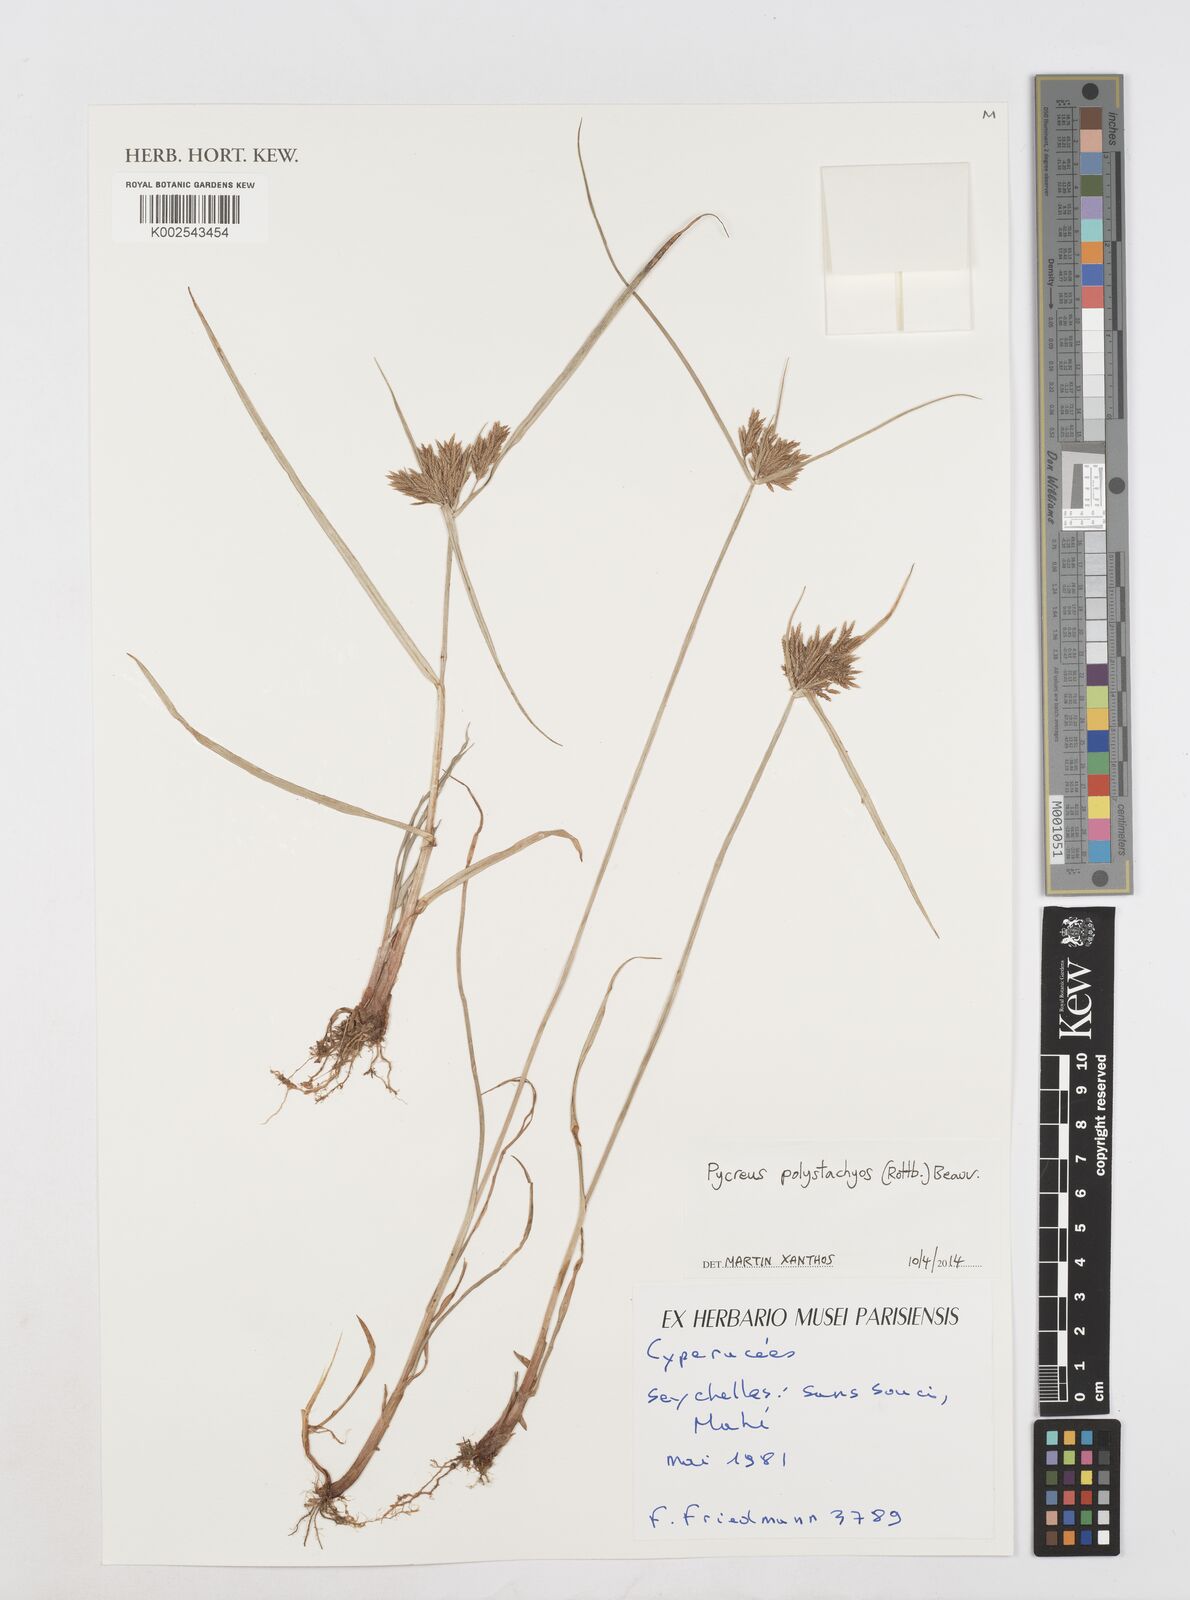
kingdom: Plantae
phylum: Tracheophyta
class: Liliopsida
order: Poales
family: Cyperaceae
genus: Cyperus
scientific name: Cyperus polystachyos
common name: Bunchy flat sedge
